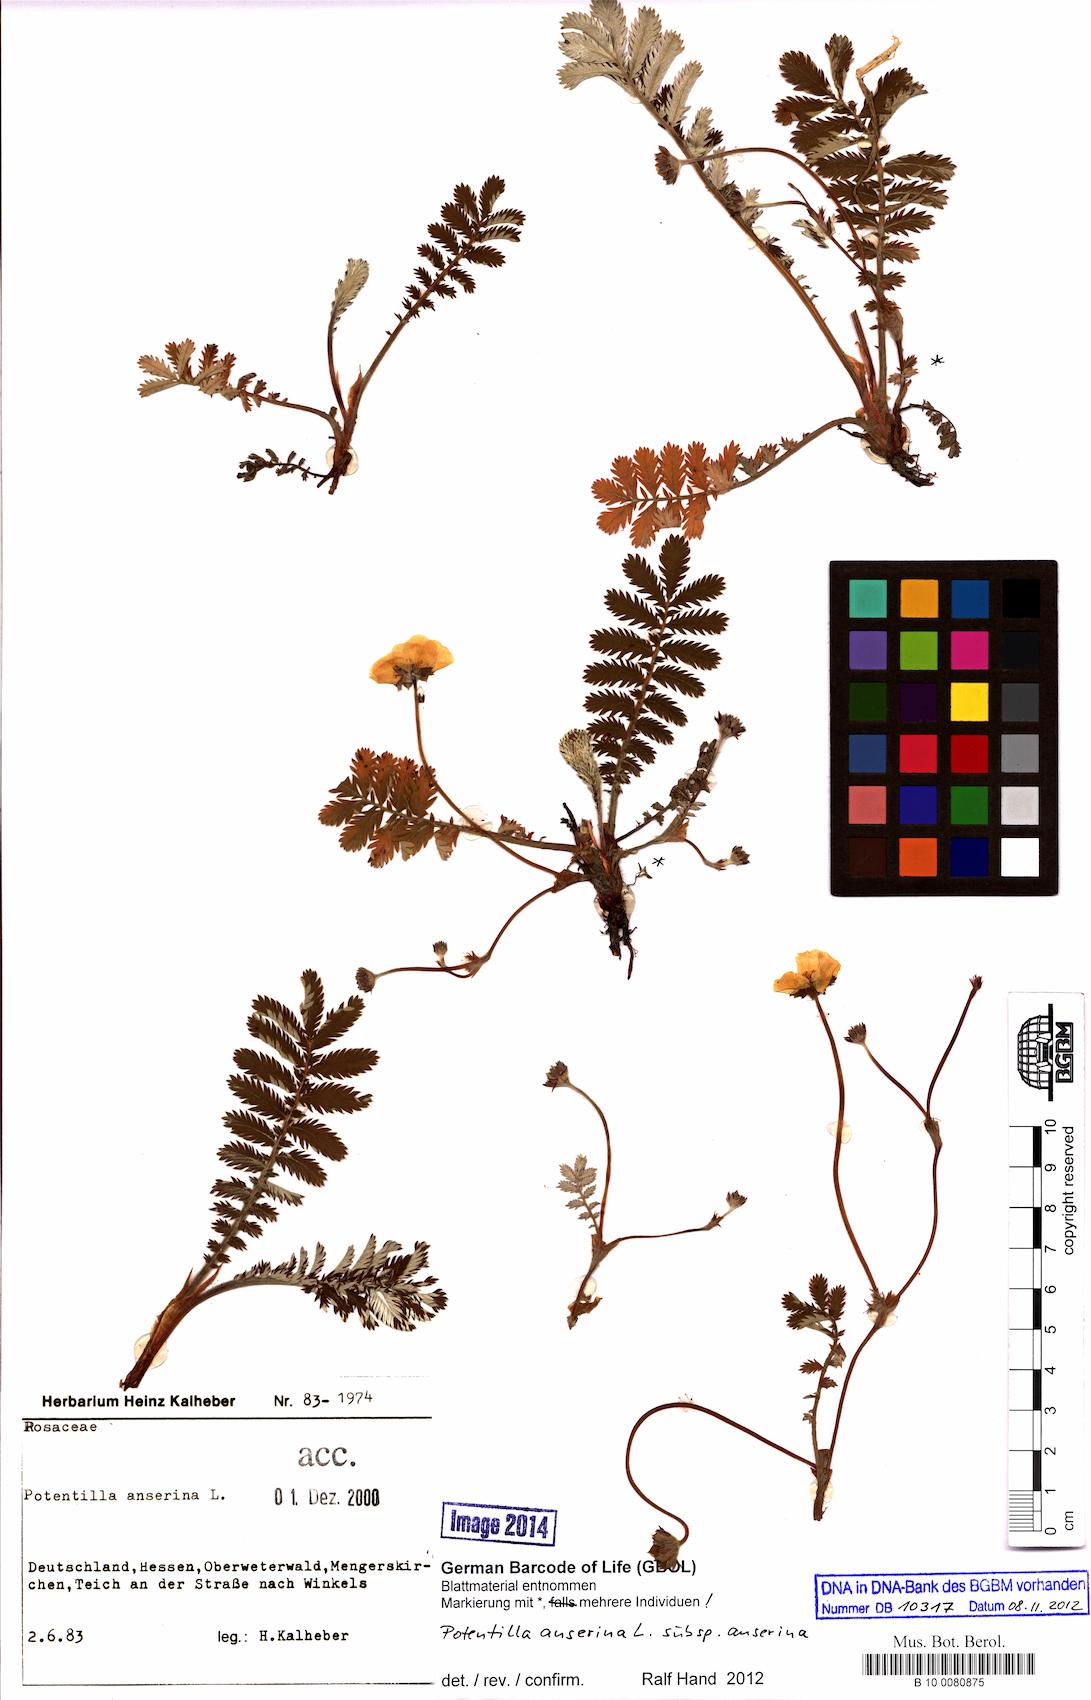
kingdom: Plantae
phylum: Tracheophyta
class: Magnoliopsida
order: Rosales
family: Rosaceae
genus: Argentina
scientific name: Argentina anserina
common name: Common silverweed
